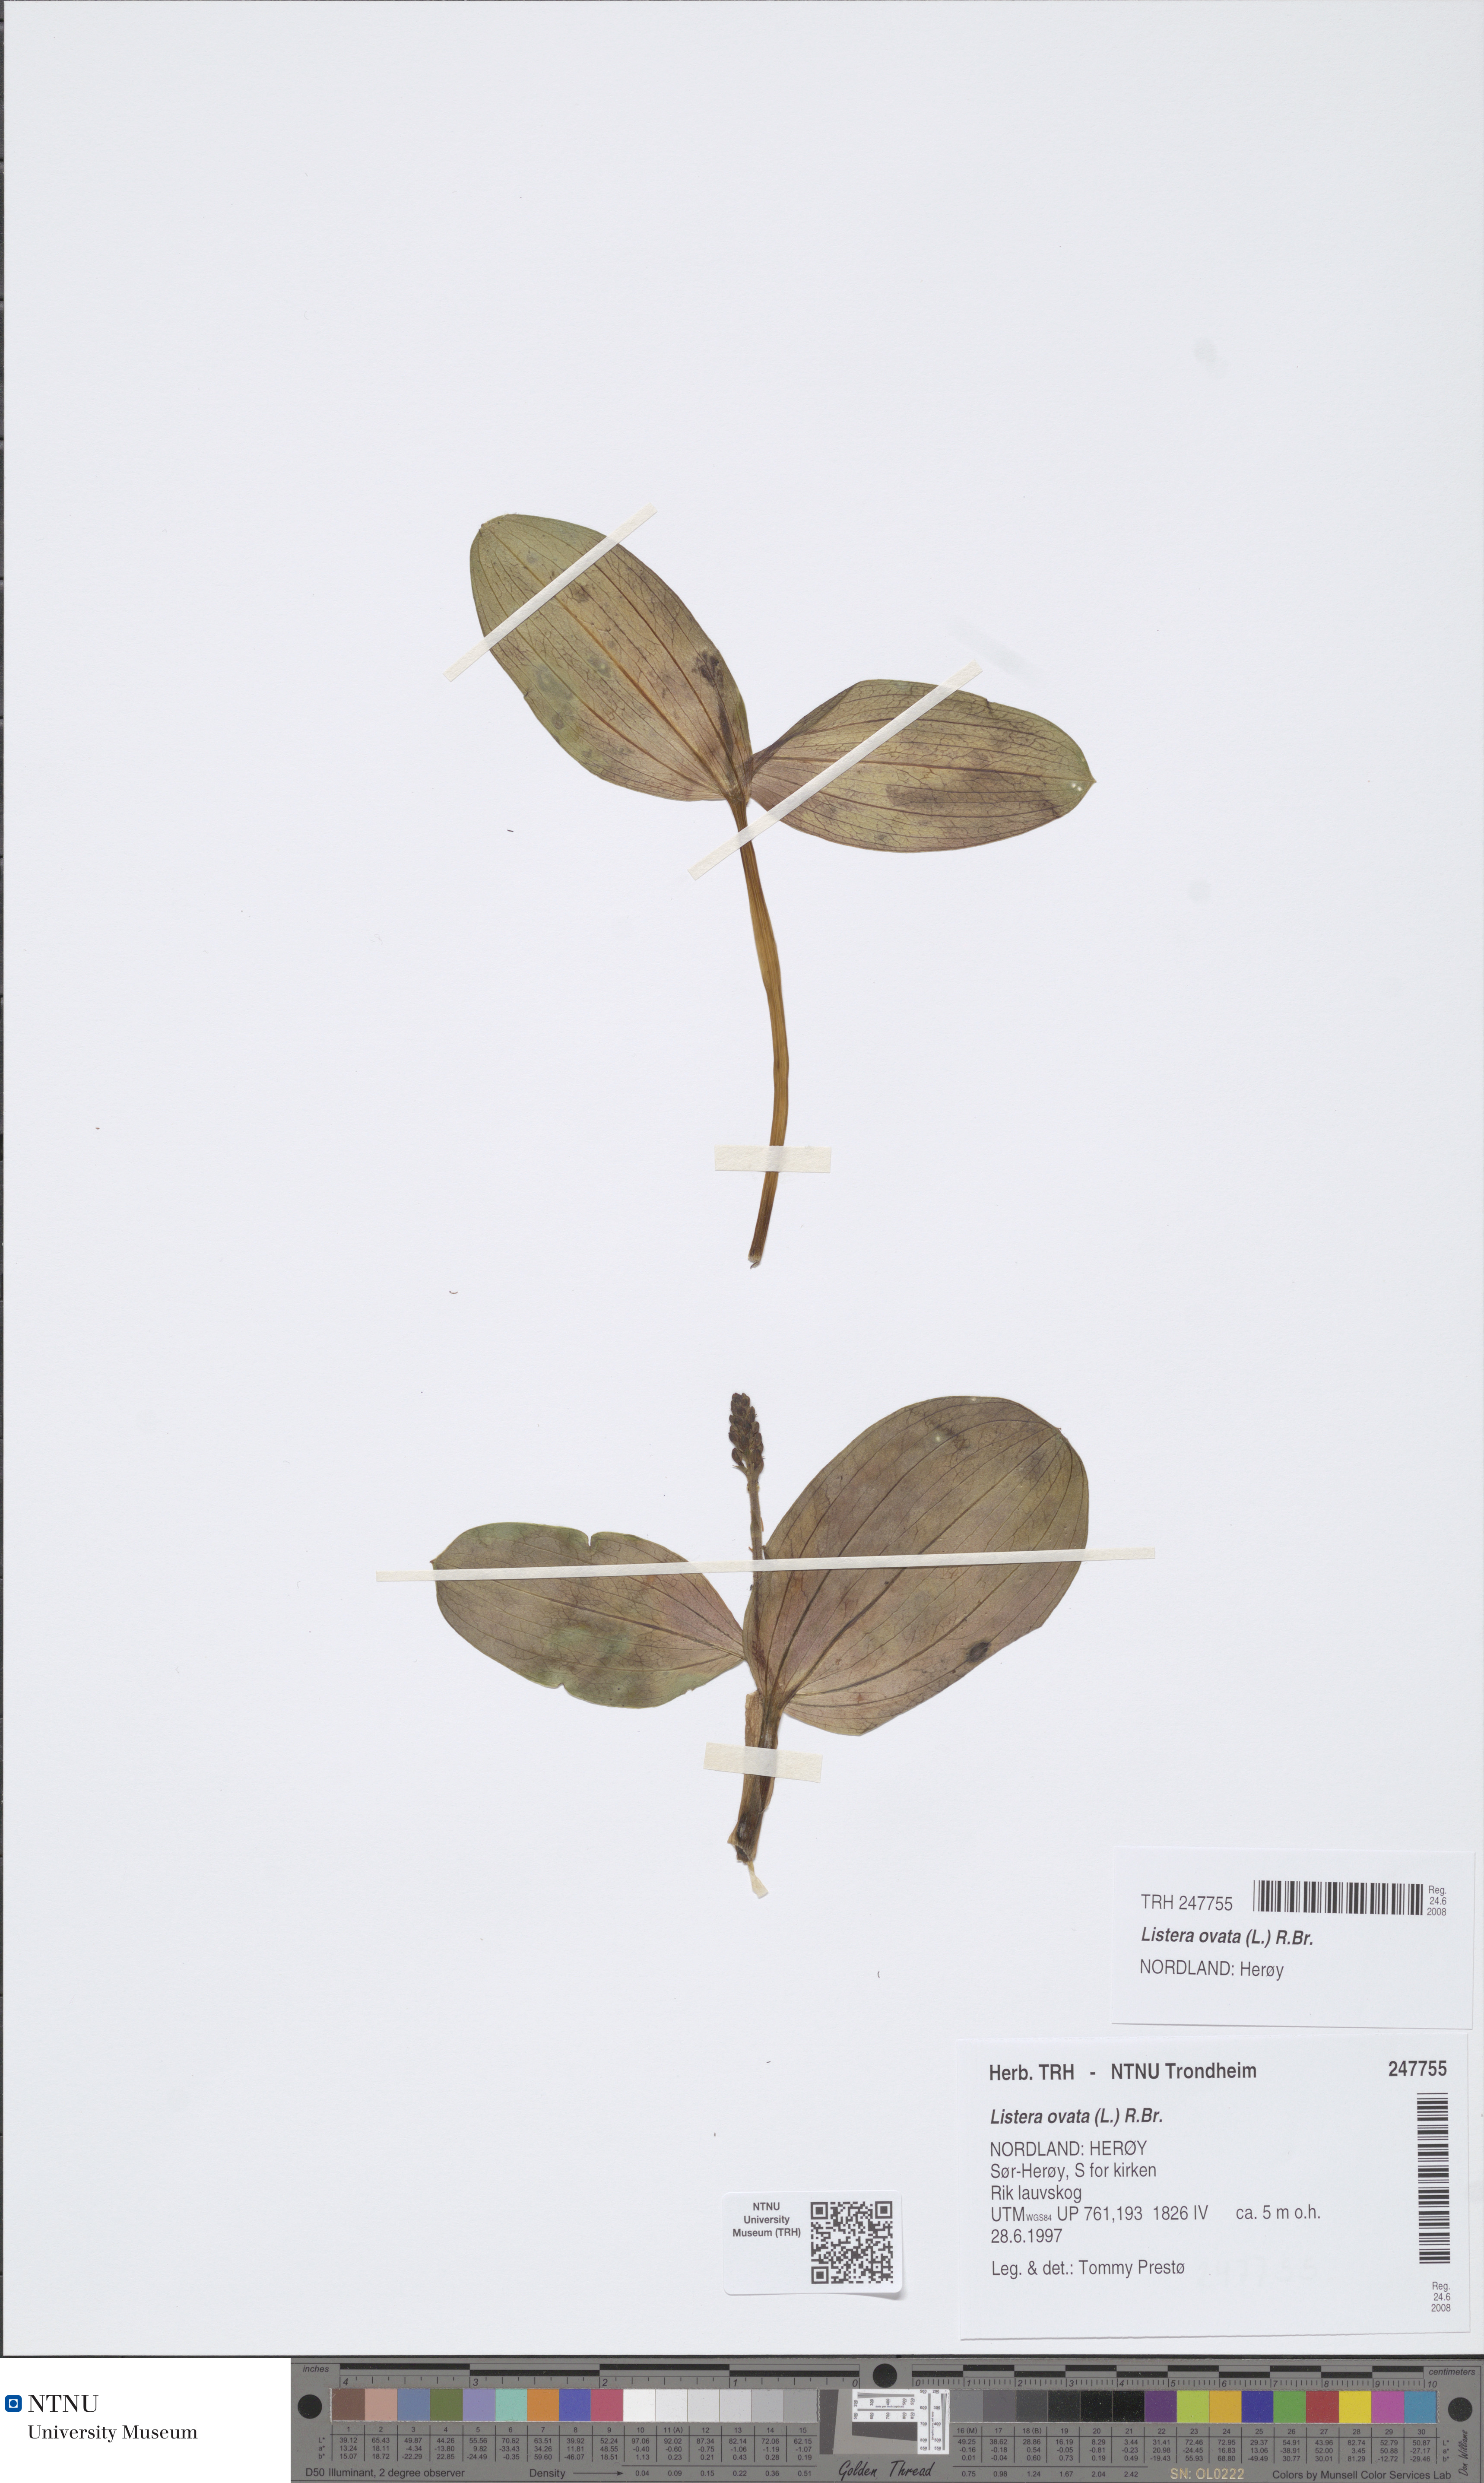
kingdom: Plantae
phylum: Tracheophyta
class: Liliopsida
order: Asparagales
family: Orchidaceae
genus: Neottia
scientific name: Neottia ovata
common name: Common twayblade
